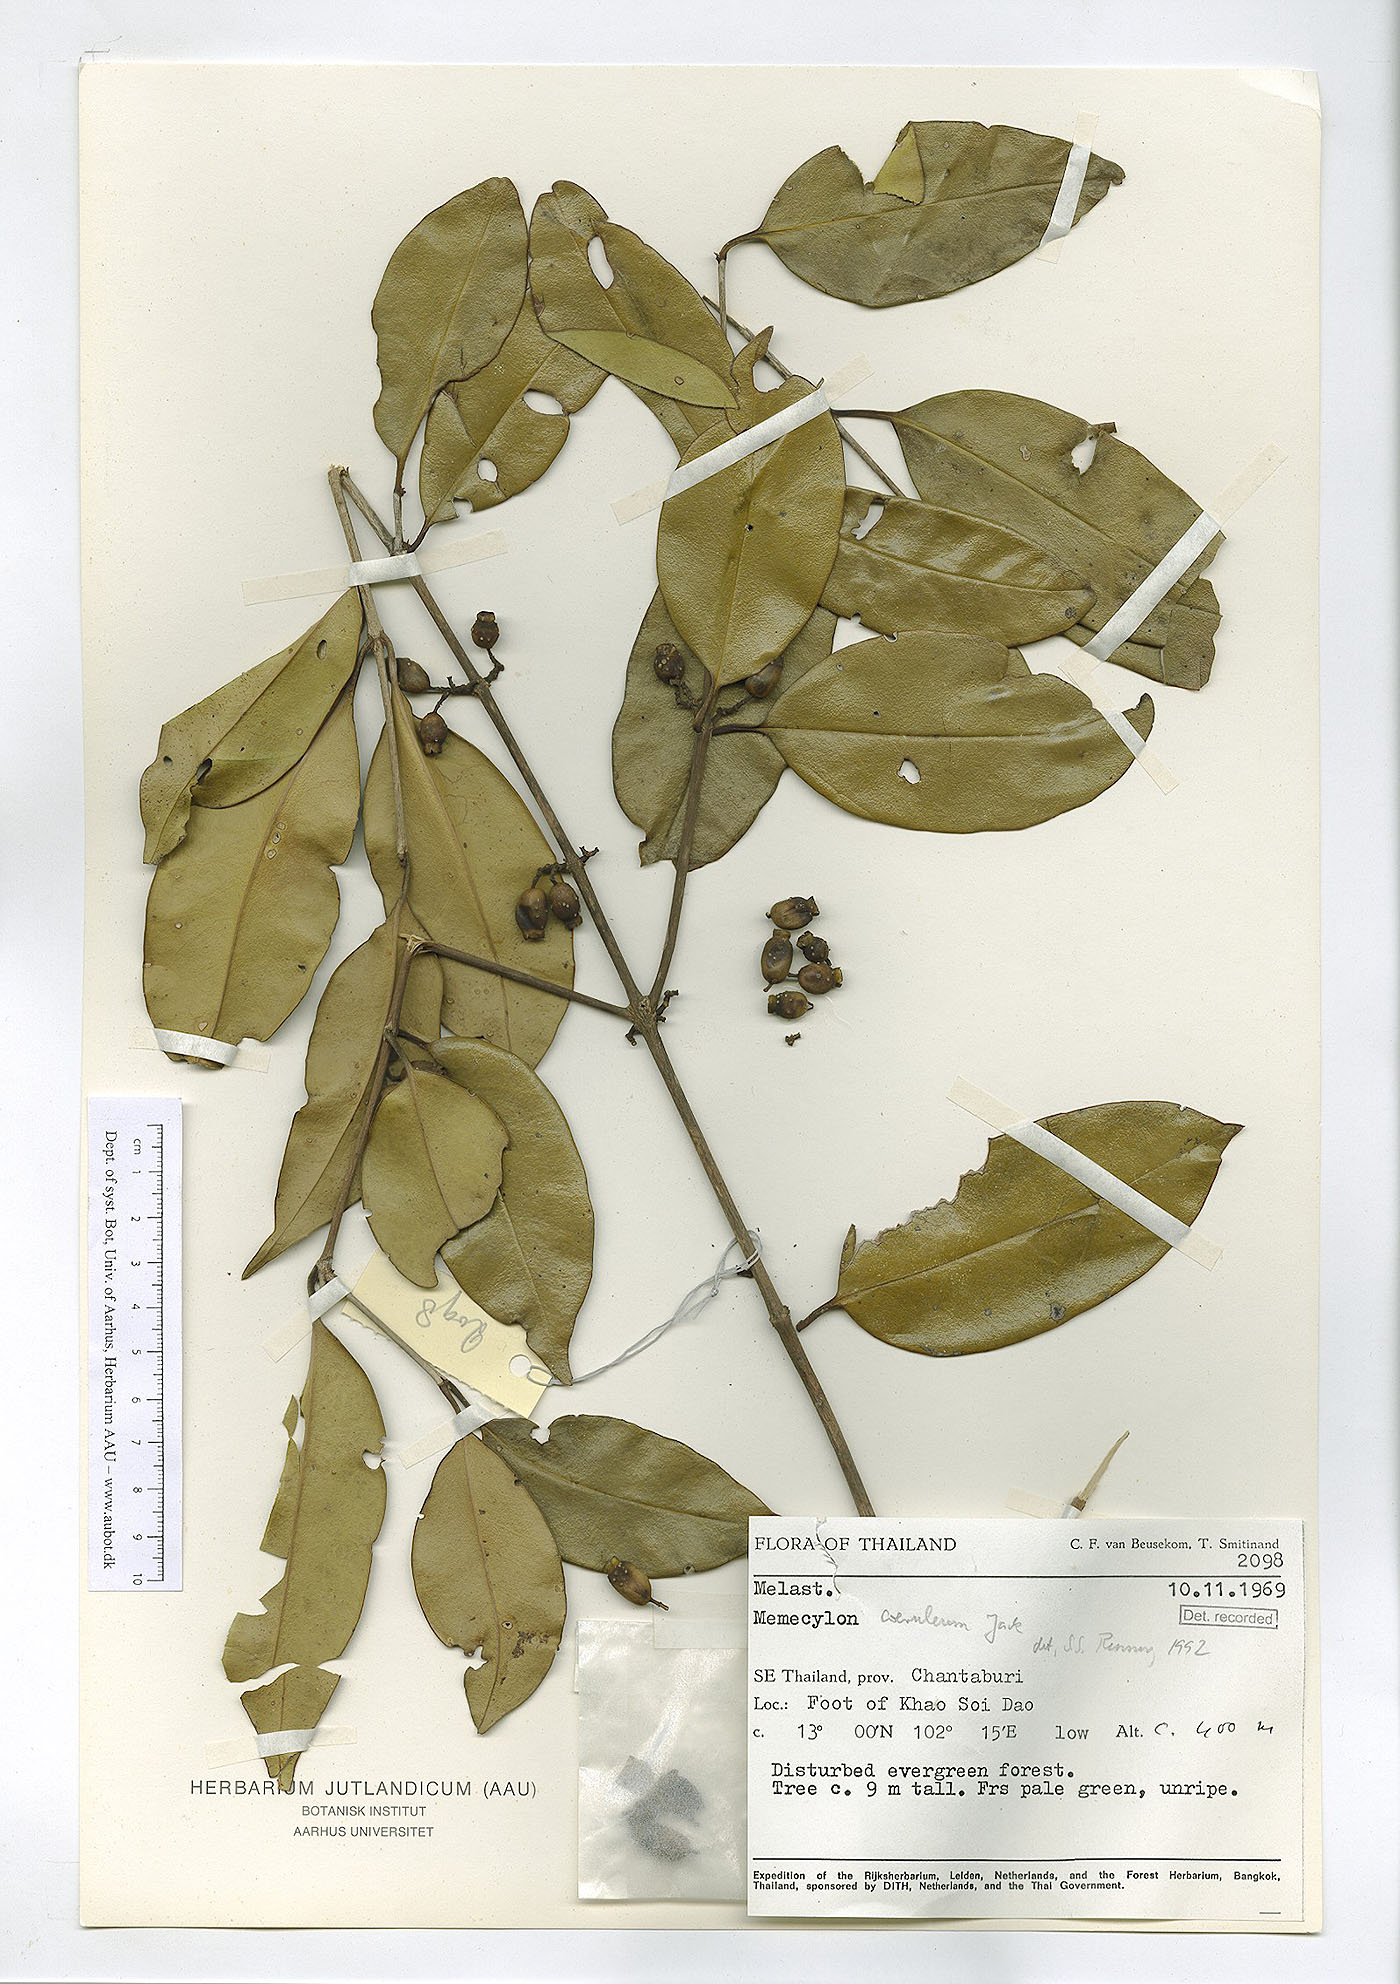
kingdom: Plantae
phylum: Tracheophyta
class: Magnoliopsida
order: Myrtales
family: Melastomataceae
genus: Memecylon
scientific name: Memecylon caeruleum
